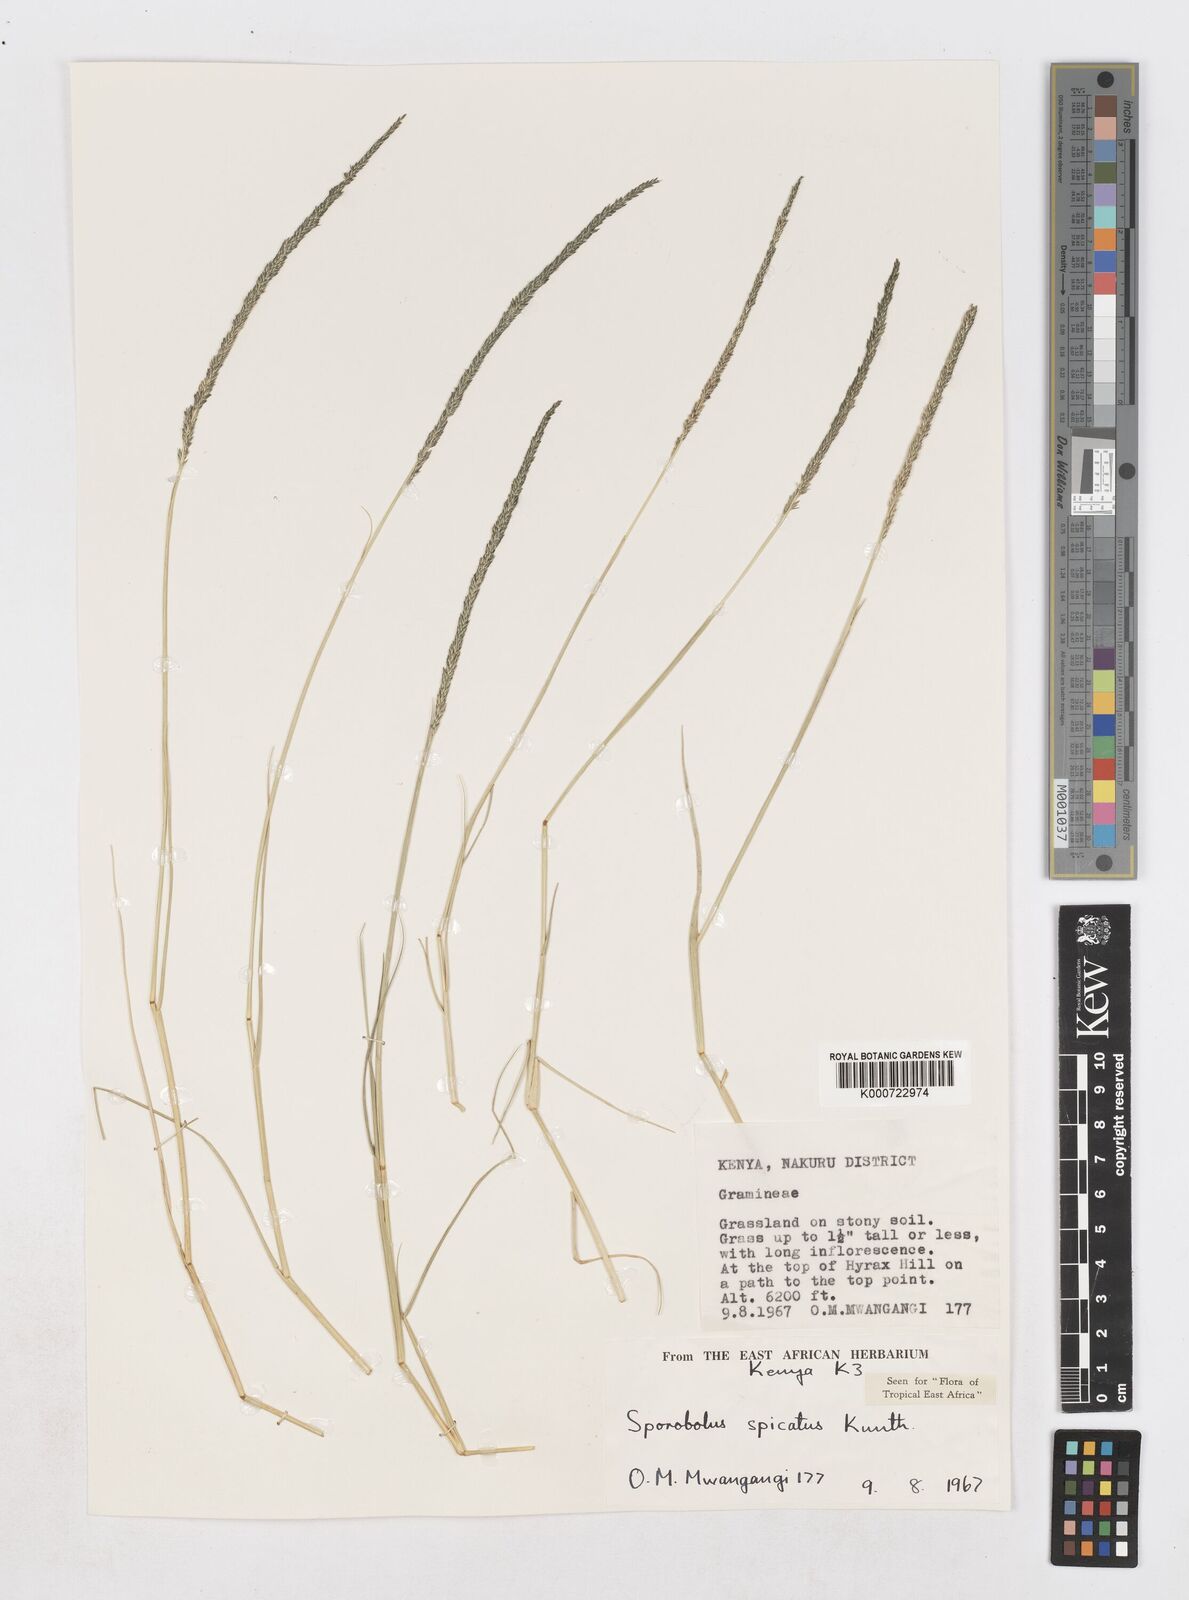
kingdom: Plantae
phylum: Tracheophyta
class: Liliopsida
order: Poales
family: Poaceae
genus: Sporobolus
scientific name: Sporobolus spicatus
